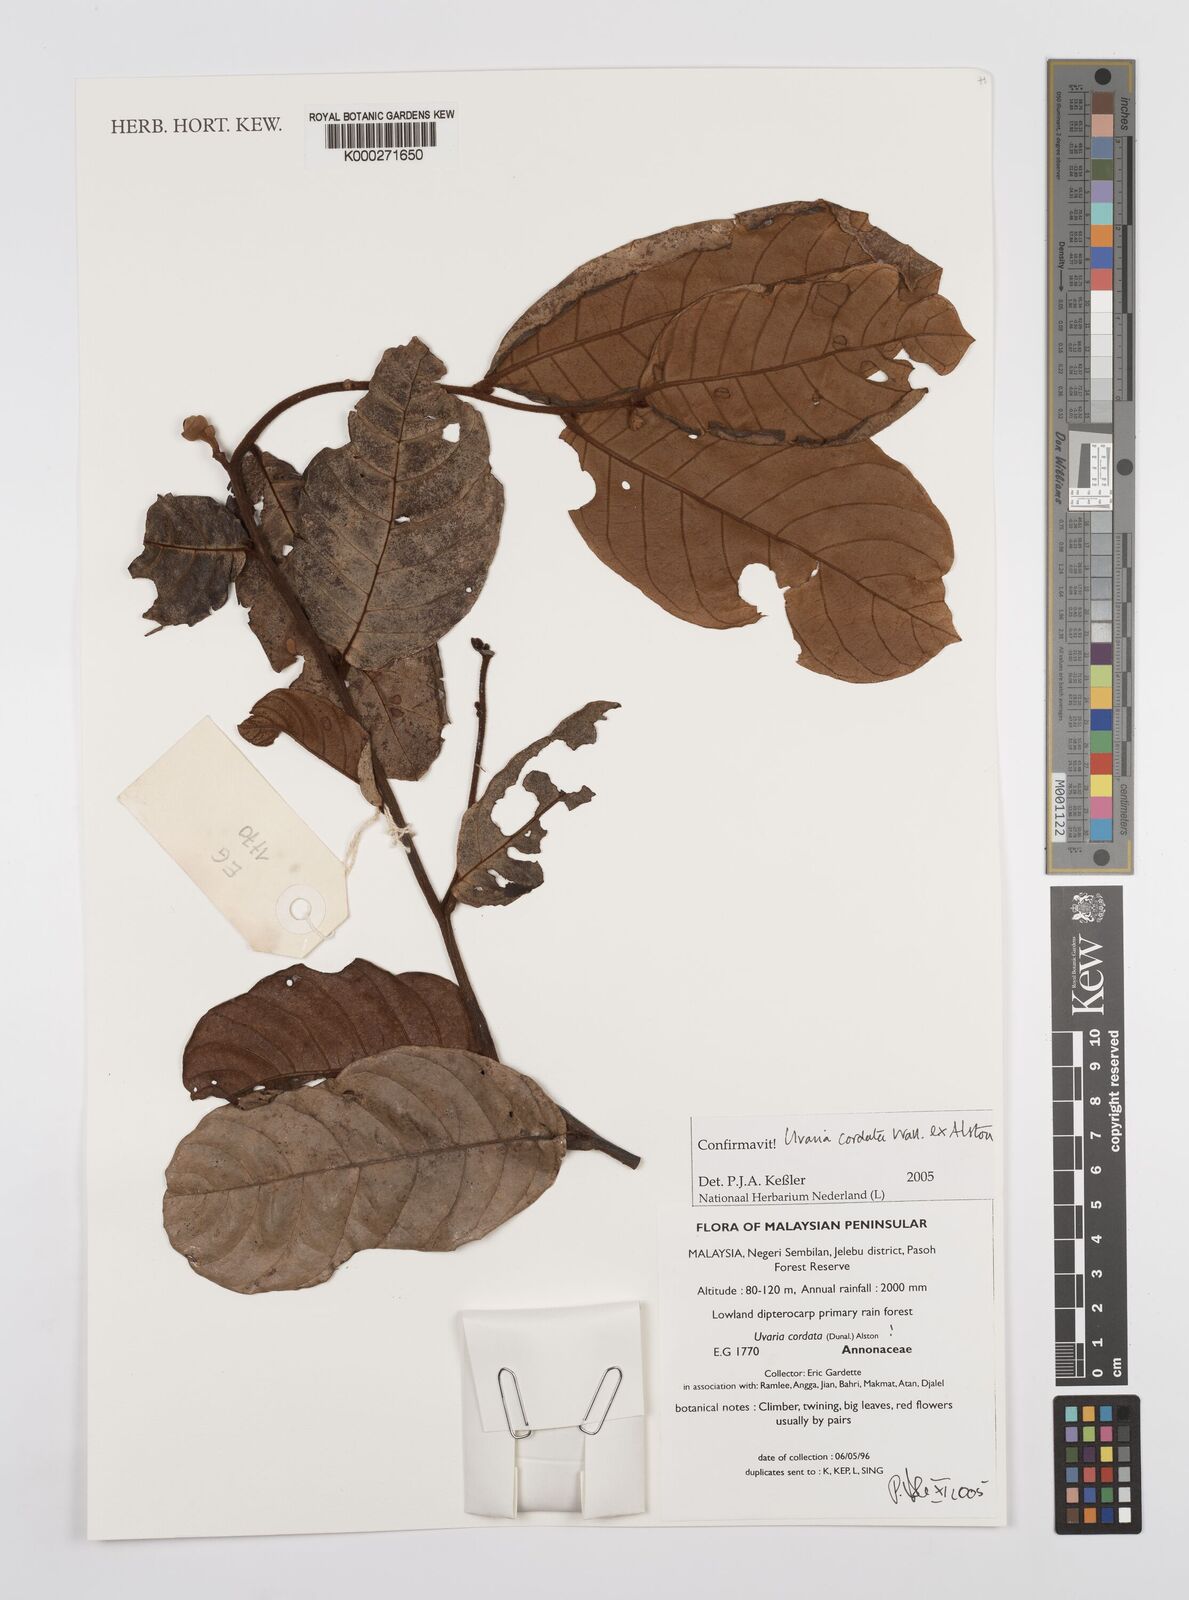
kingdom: Plantae
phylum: Tracheophyta
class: Magnoliopsida
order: Magnoliales
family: Annonaceae
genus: Uvaria
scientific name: Uvaria
